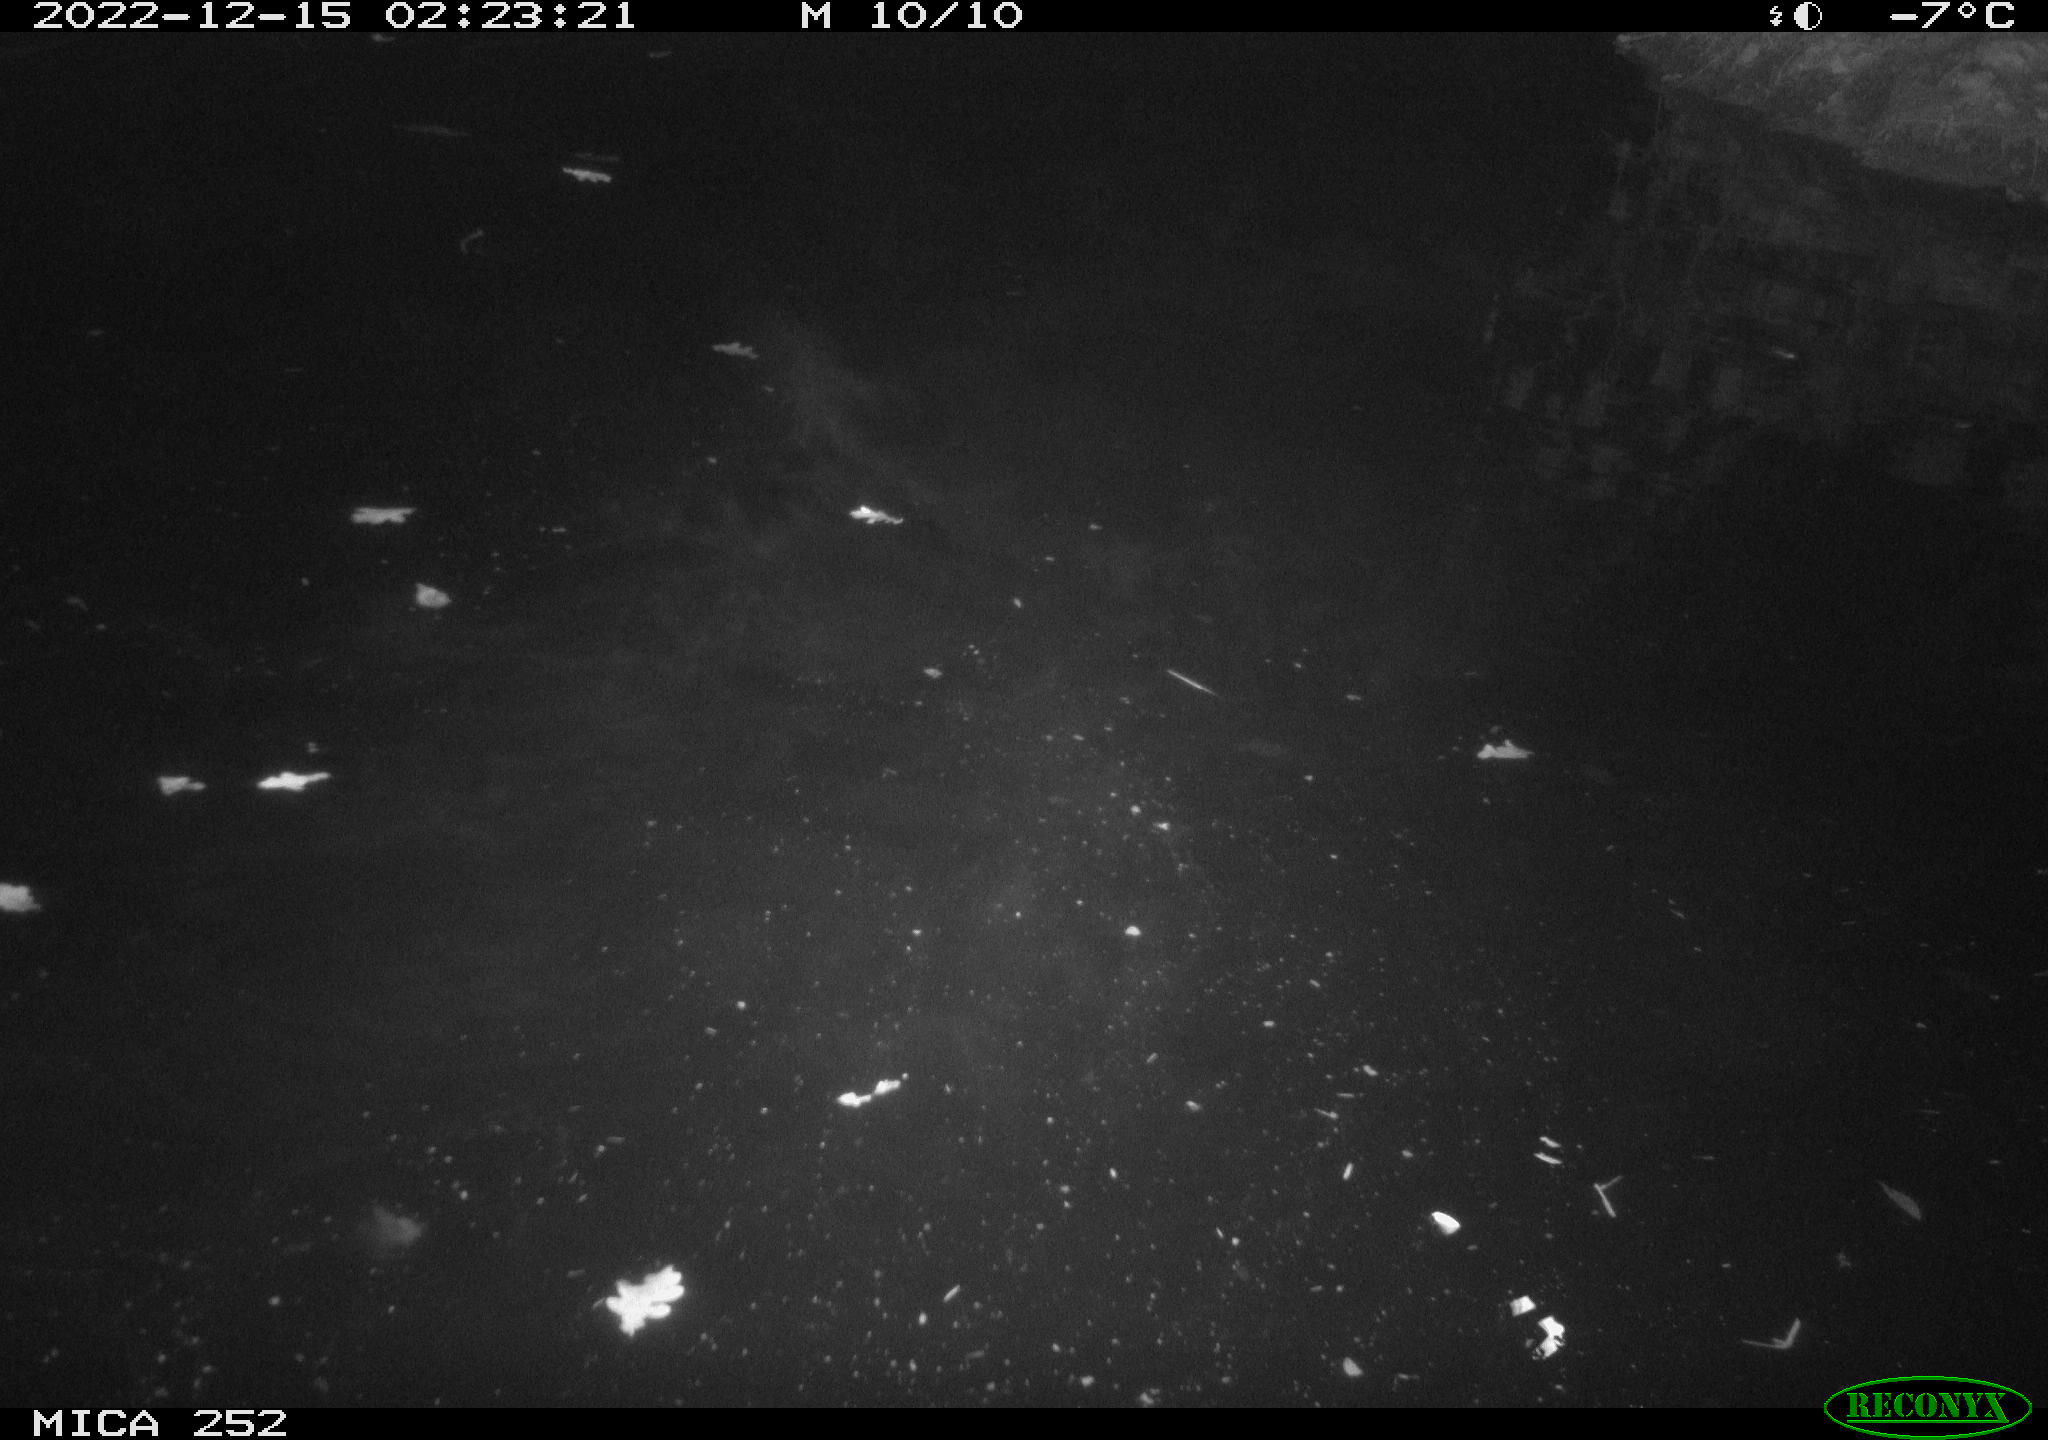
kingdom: Animalia
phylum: Chordata
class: Mammalia
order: Rodentia
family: Castoridae
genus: Castor
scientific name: Castor fiber
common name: Eurasian beaver
